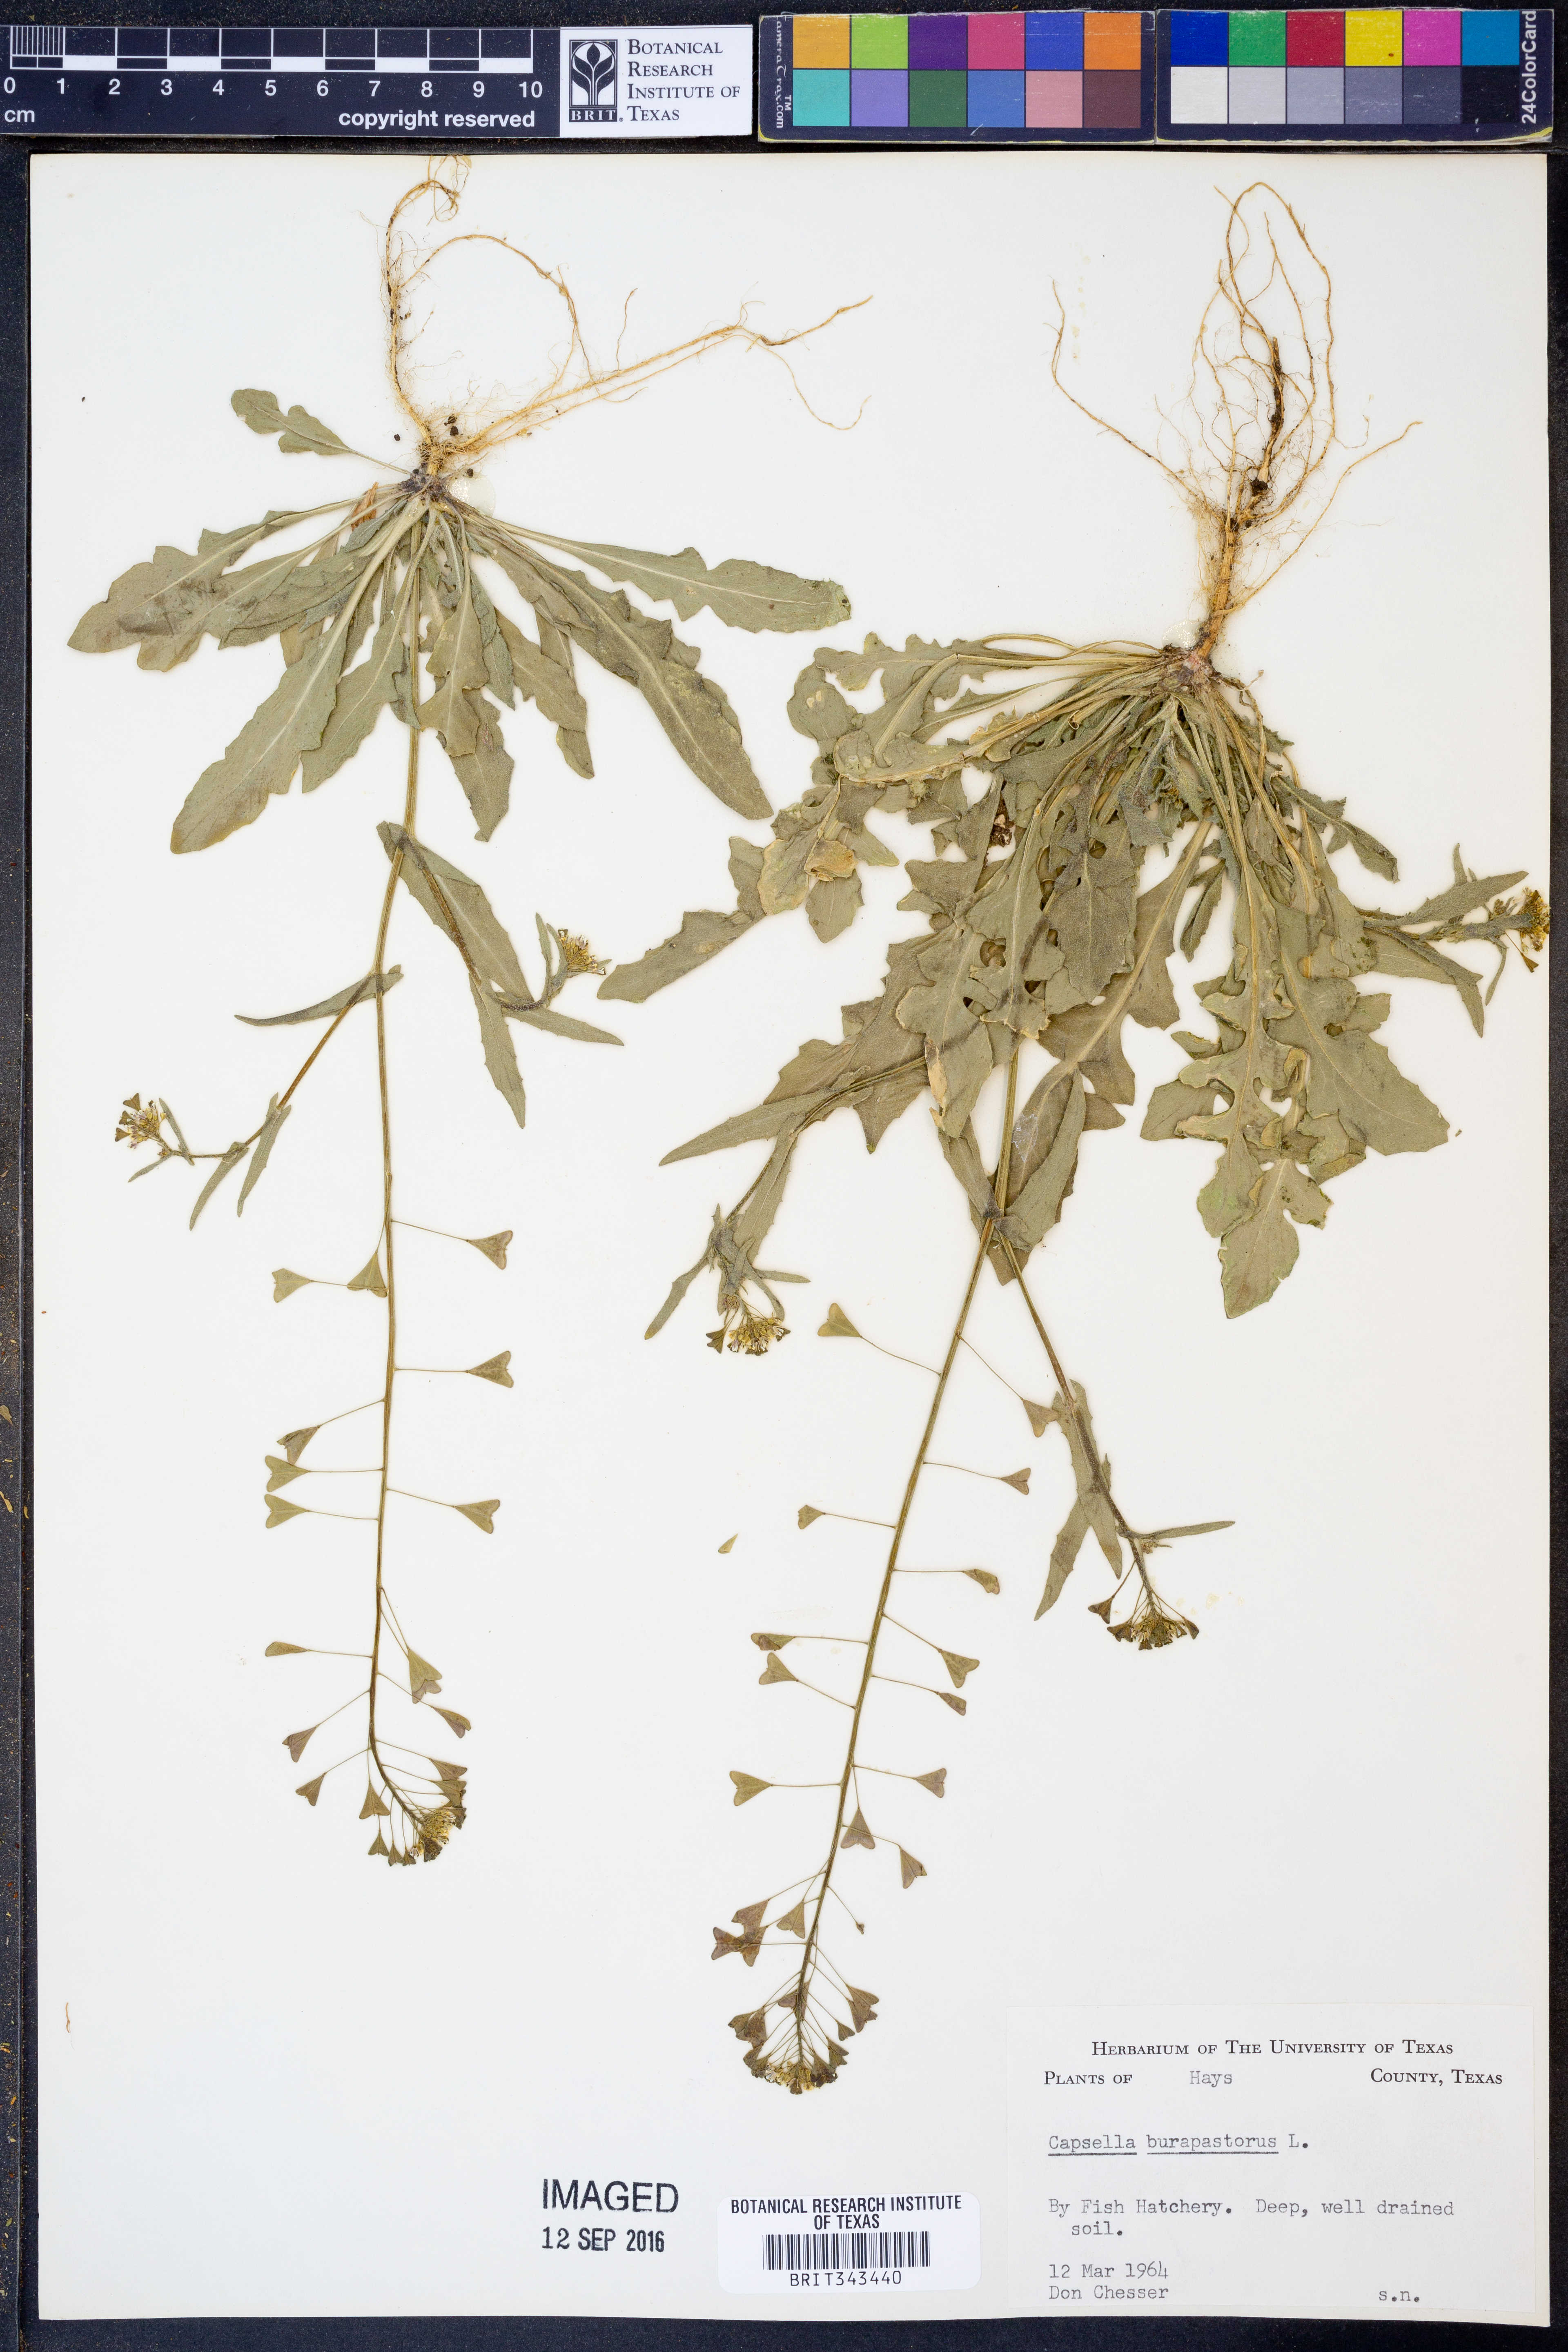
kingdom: Plantae
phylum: Tracheophyta
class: Magnoliopsida
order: Brassicales
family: Brassicaceae
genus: Capsella
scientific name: Capsella bursa-pastoris
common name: Shepherd's purse
